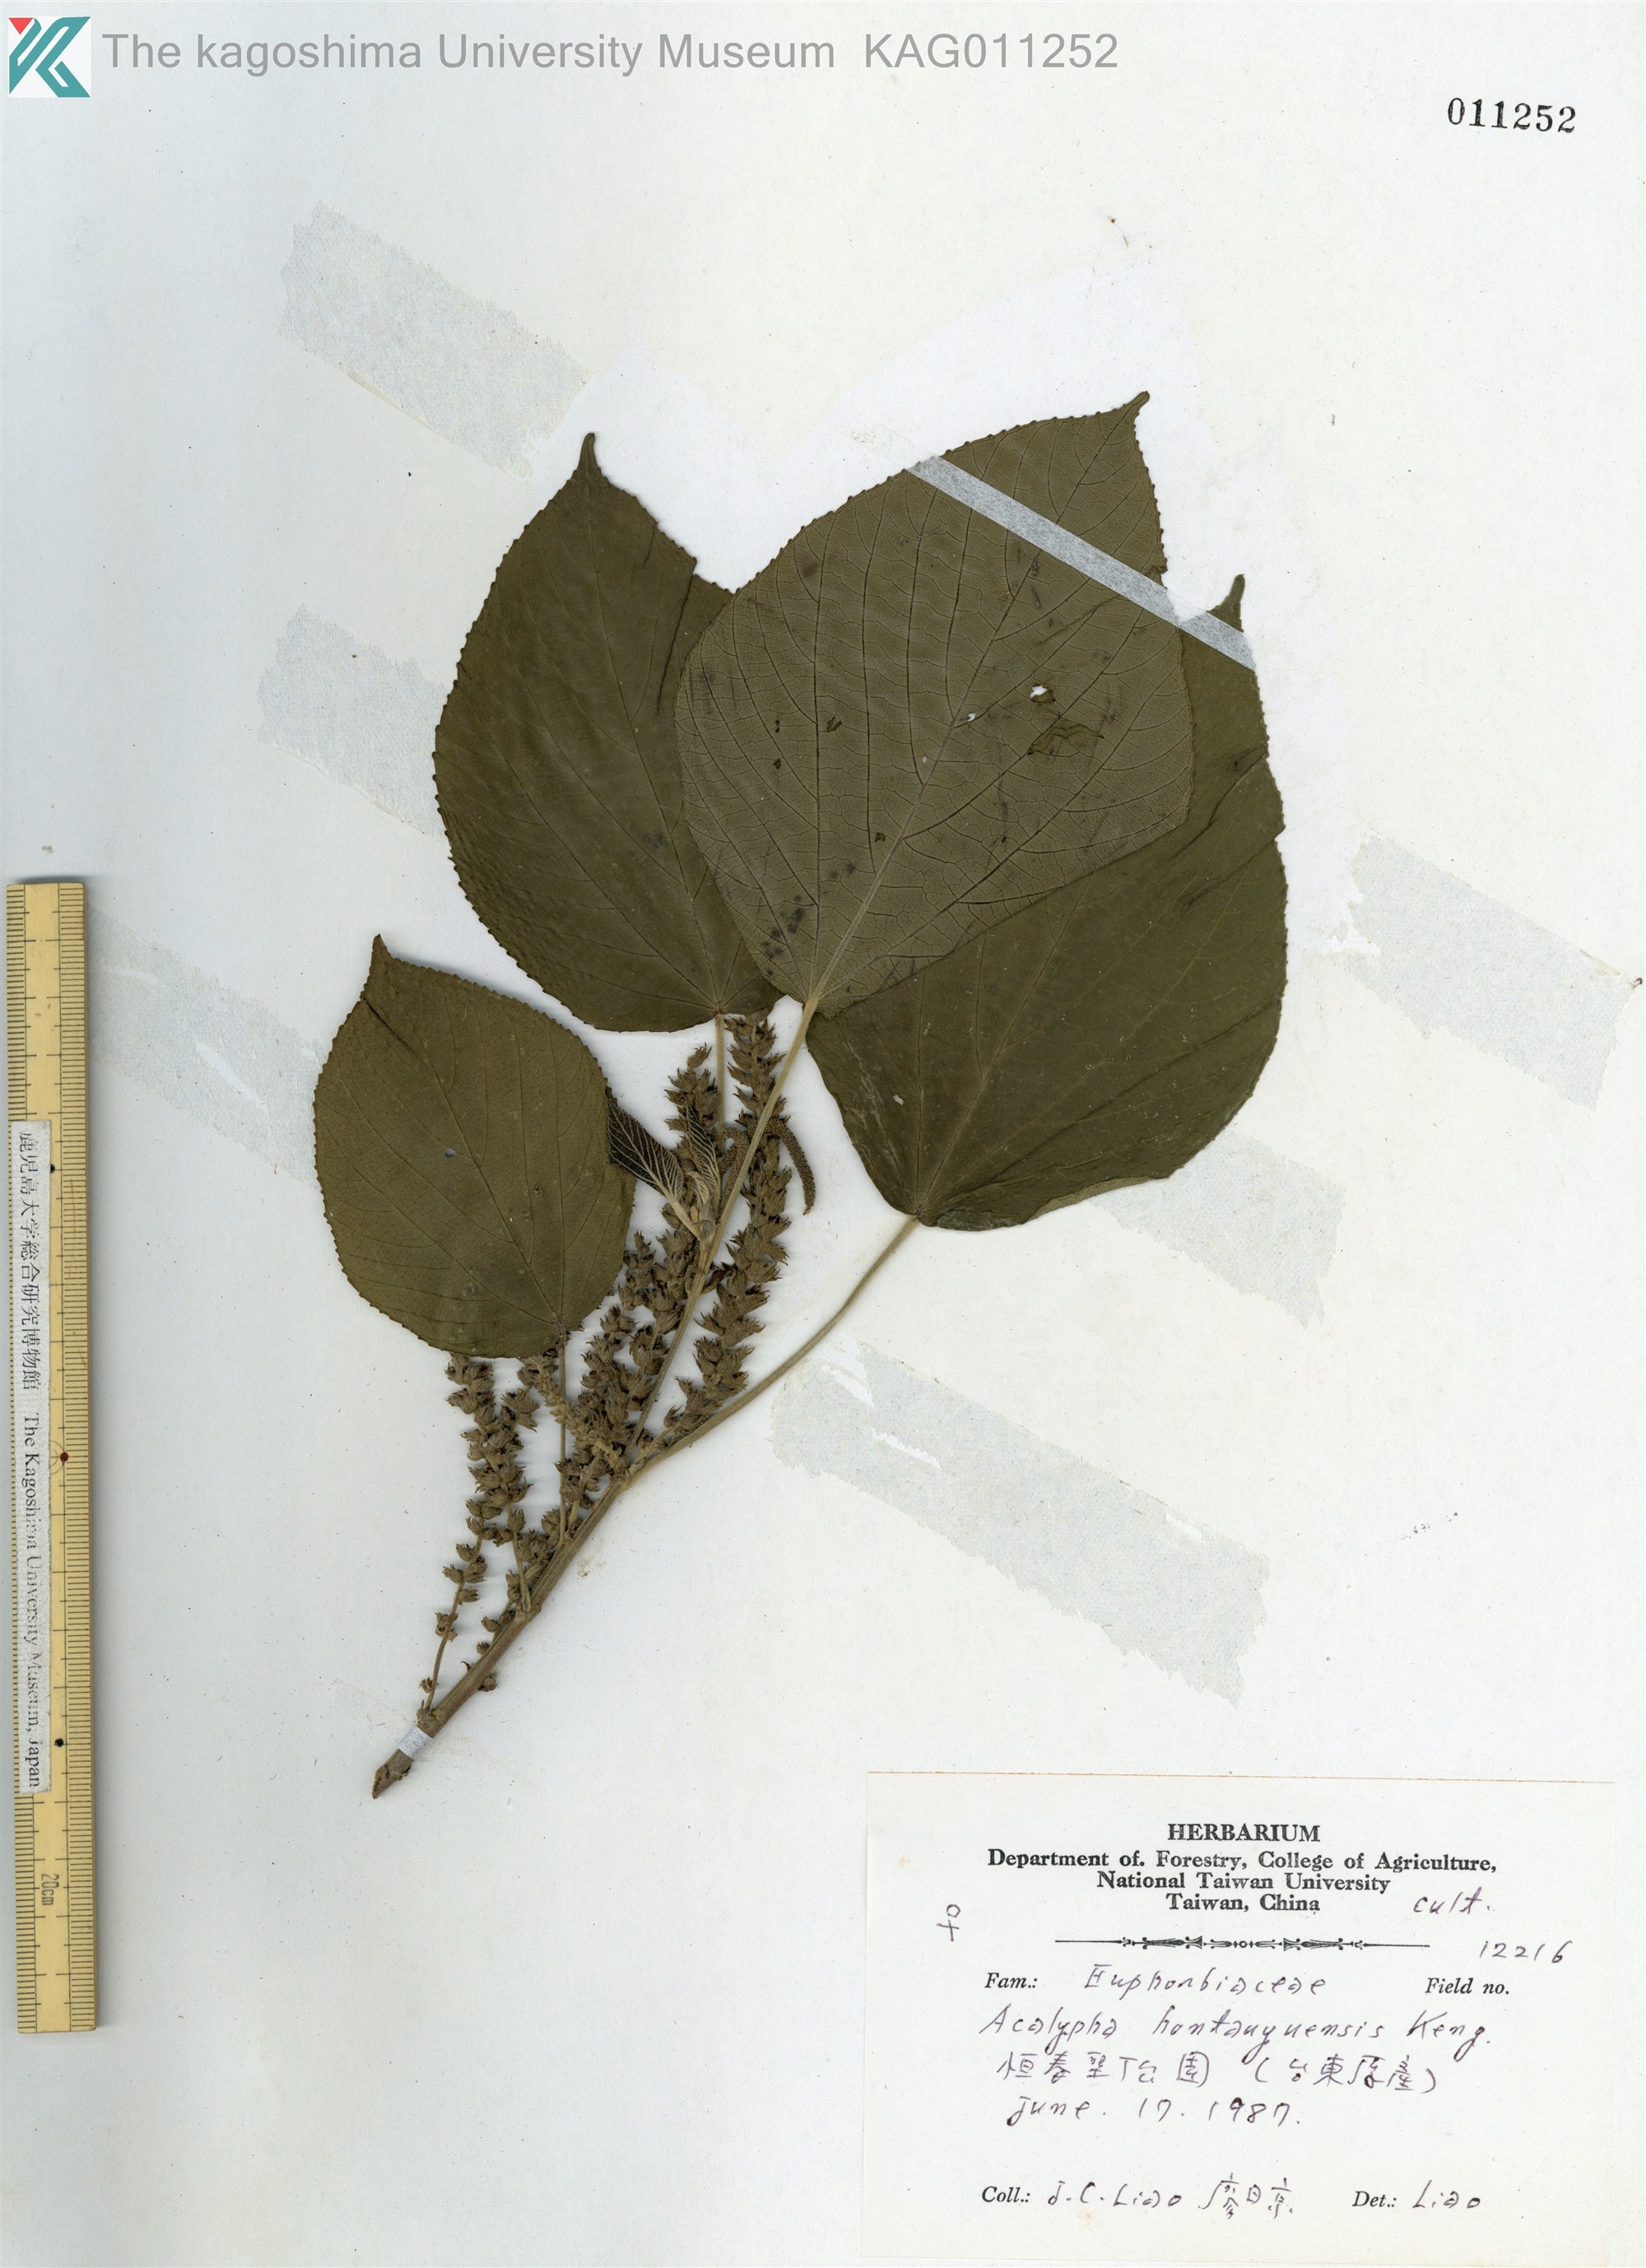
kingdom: Plantae
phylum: Tracheophyta
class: Magnoliopsida
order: Malpighiales
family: Euphorbiaceae
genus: Acalypha
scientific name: Acalypha
